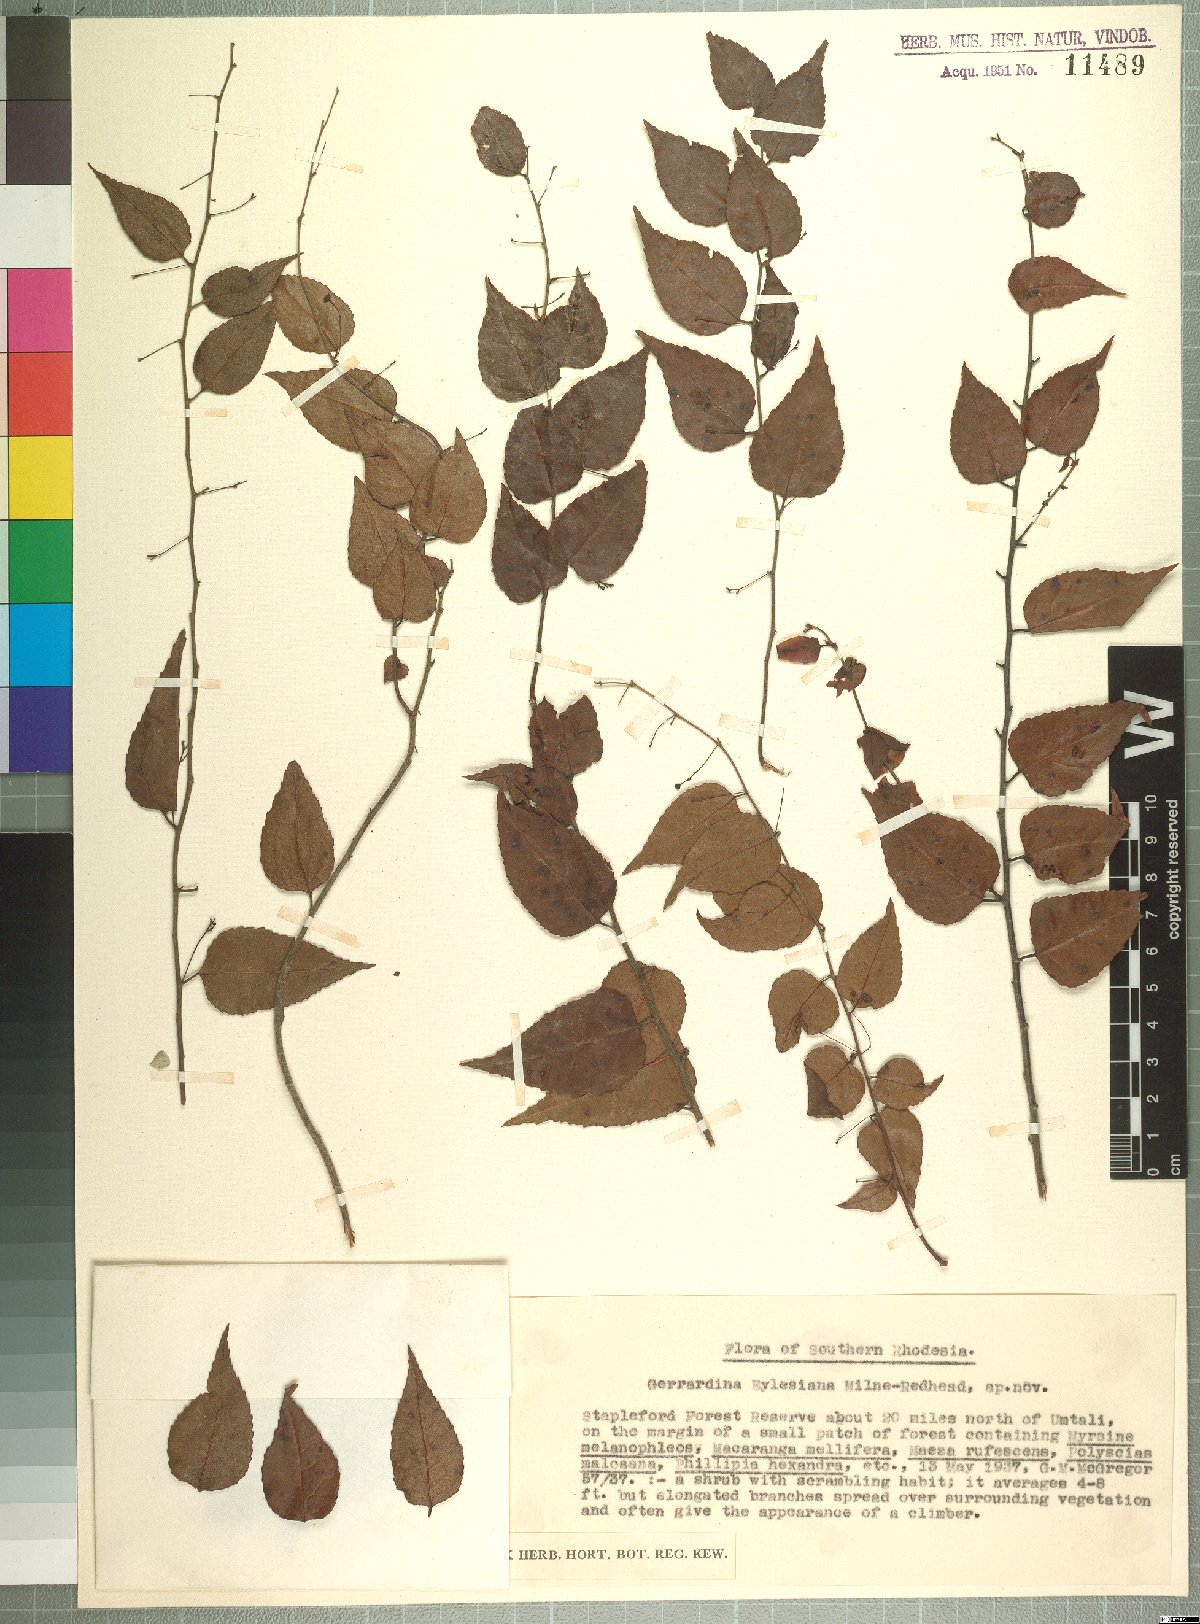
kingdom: Plantae
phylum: Tracheophyta
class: Magnoliopsida
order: Huerteales
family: Gerrardinaceae
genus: Gerrardina
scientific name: Gerrardina eylesiana
